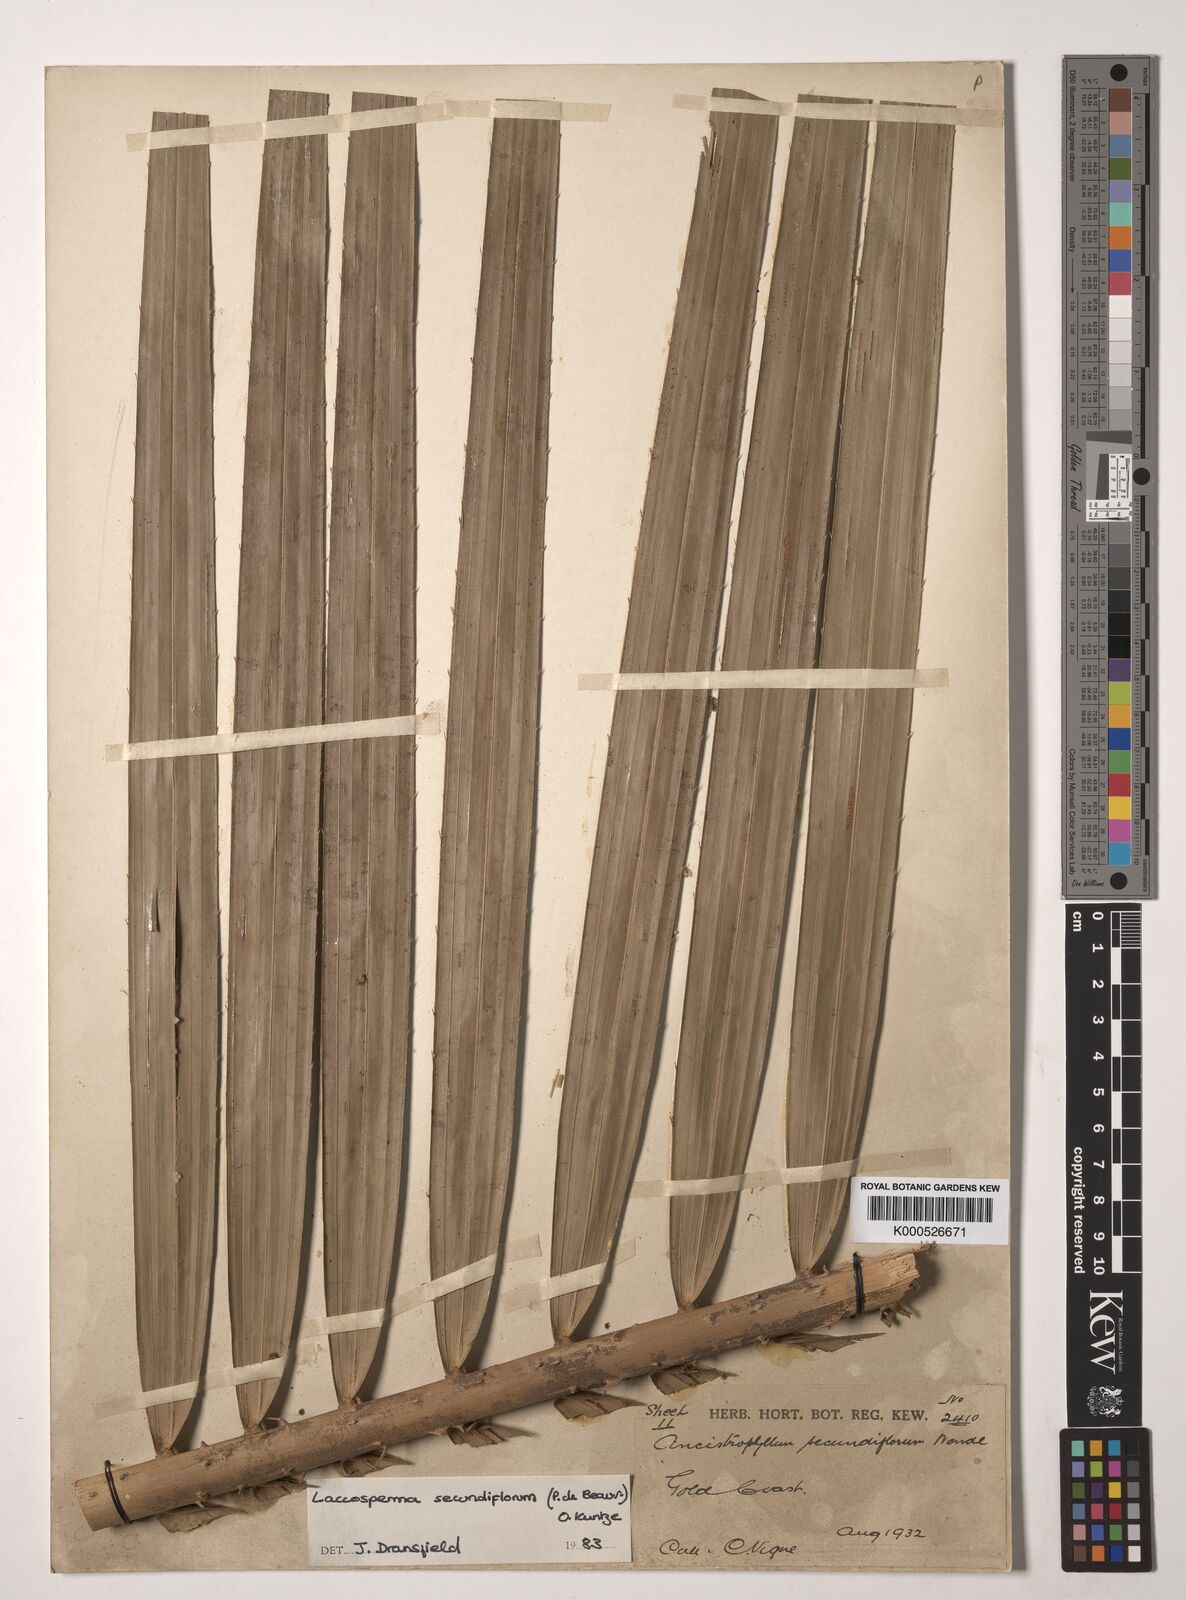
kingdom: Plantae
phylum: Tracheophyta
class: Liliopsida
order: Arecales
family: Arecaceae
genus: Laccosperma
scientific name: Laccosperma secundiflorum
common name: Rattan
